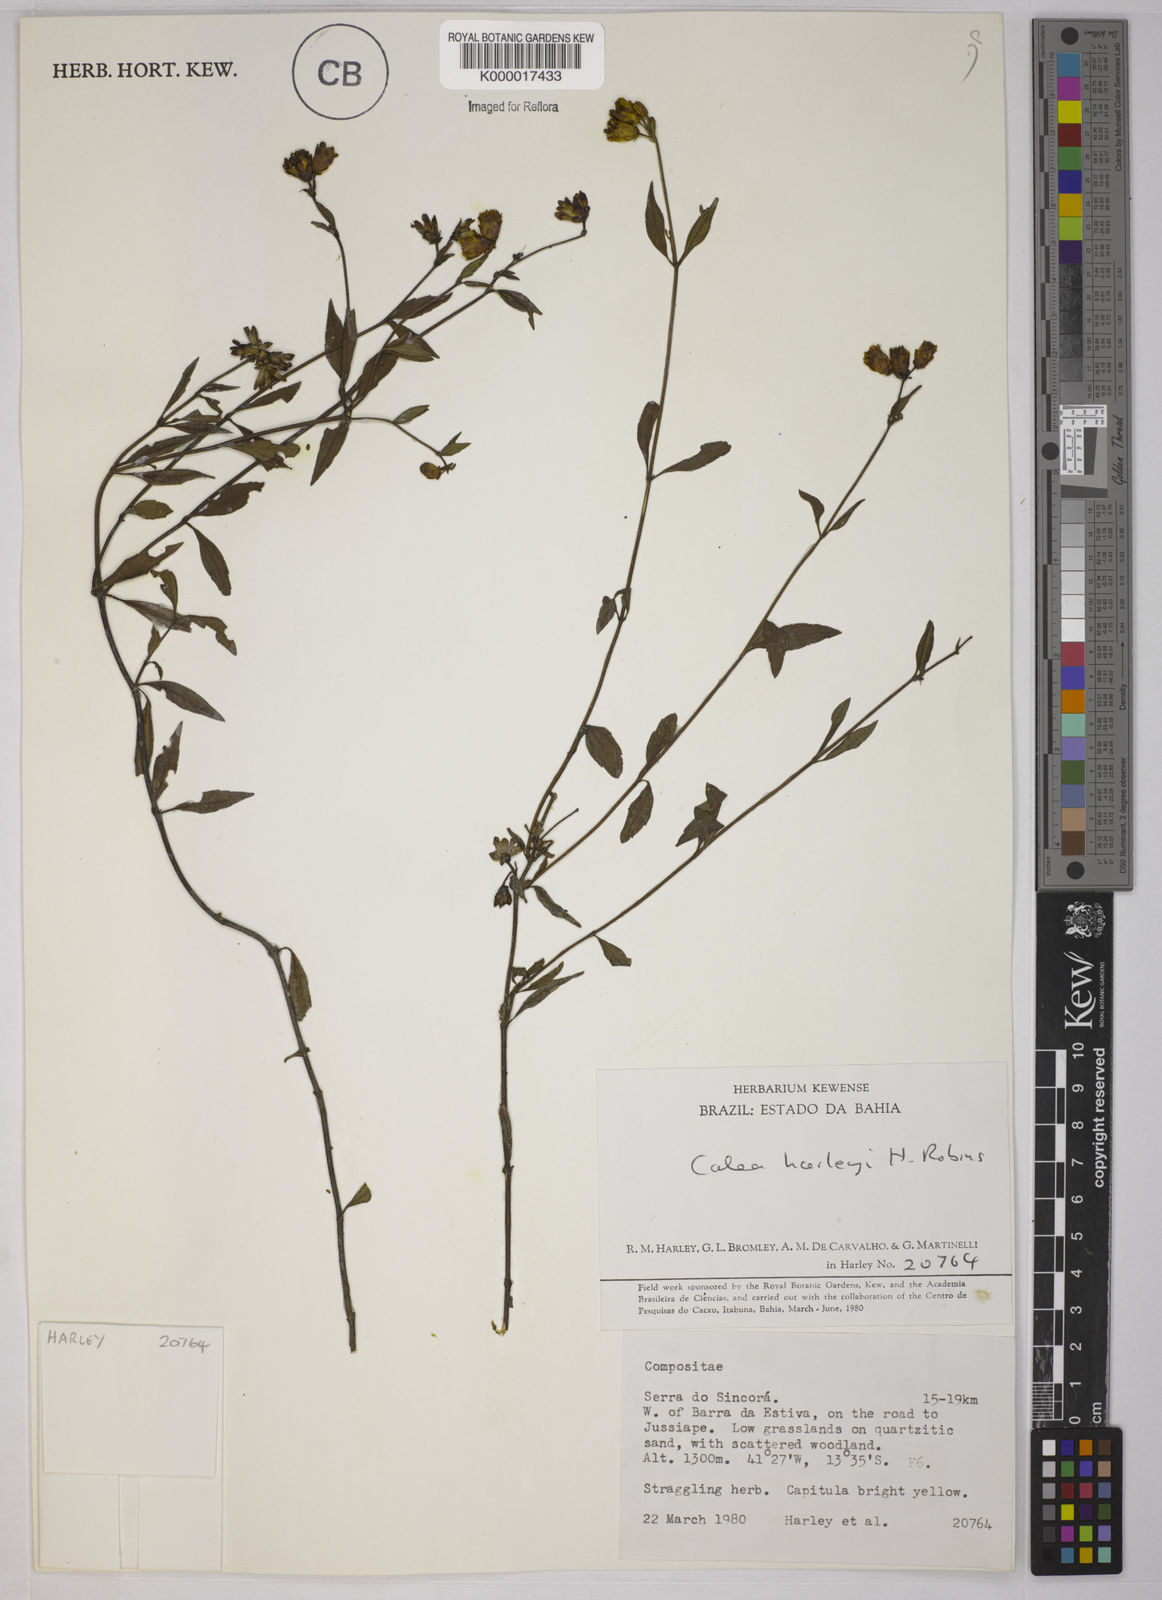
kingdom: Plantae
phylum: Tracheophyta
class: Magnoliopsida
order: Asterales
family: Asteraceae
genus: Calea
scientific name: Calea harleyi
